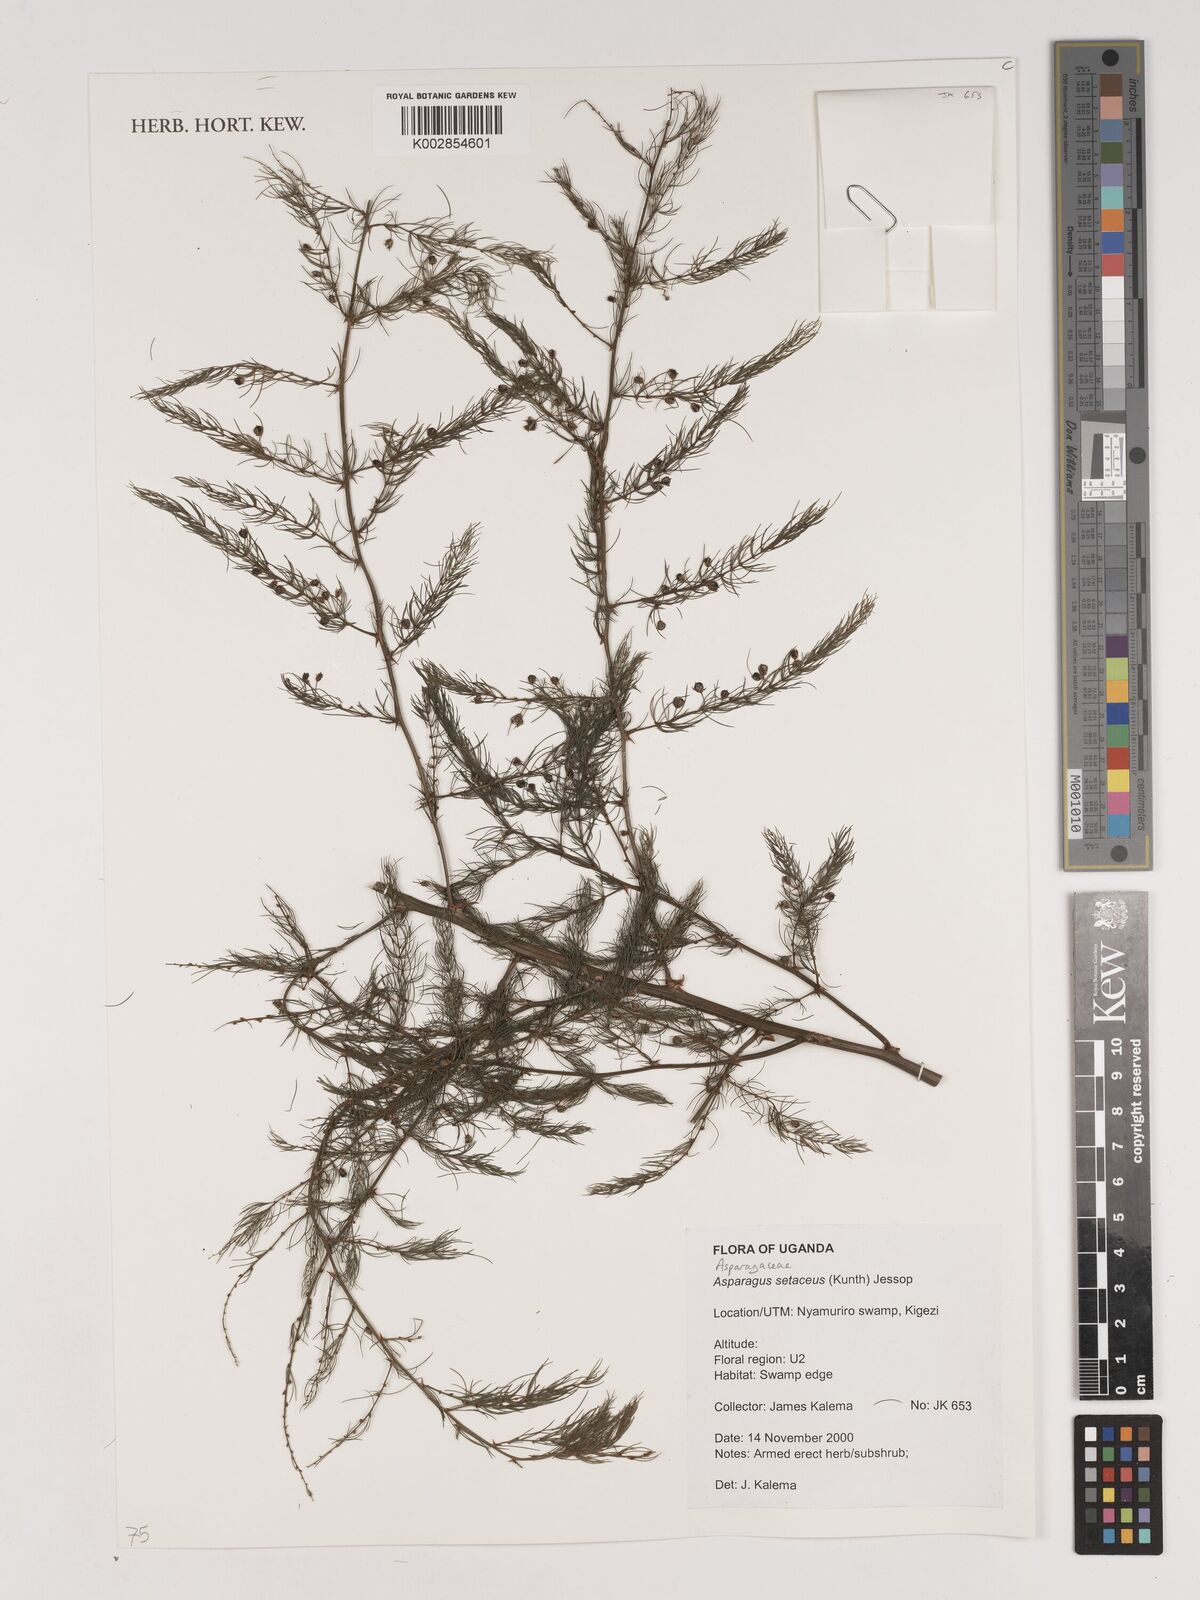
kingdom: Plantae
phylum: Tracheophyta
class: Liliopsida
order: Asparagales
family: Asparagaceae
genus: Asparagus
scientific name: Asparagus setaceus
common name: Common asparagus fern
